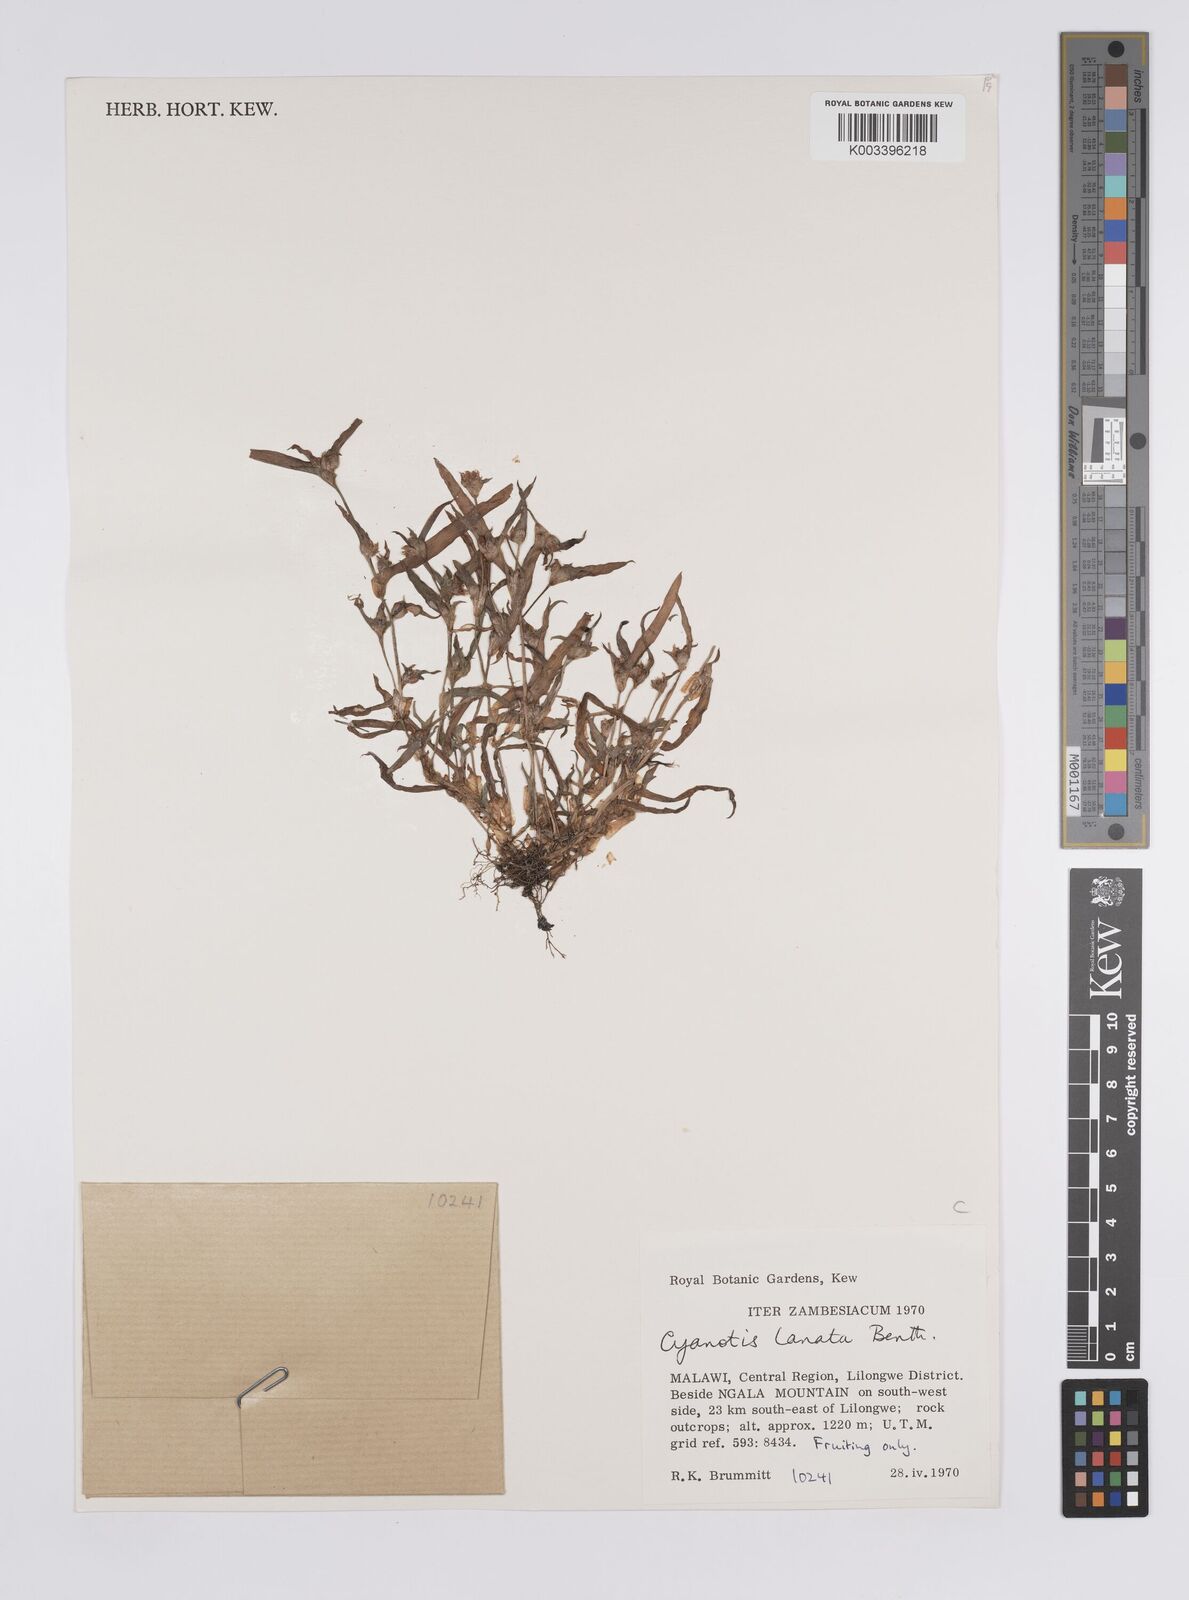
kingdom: Plantae
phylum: Tracheophyta
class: Liliopsida
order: Commelinales
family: Commelinaceae
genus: Cyanotis
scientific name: Cyanotis lanata
